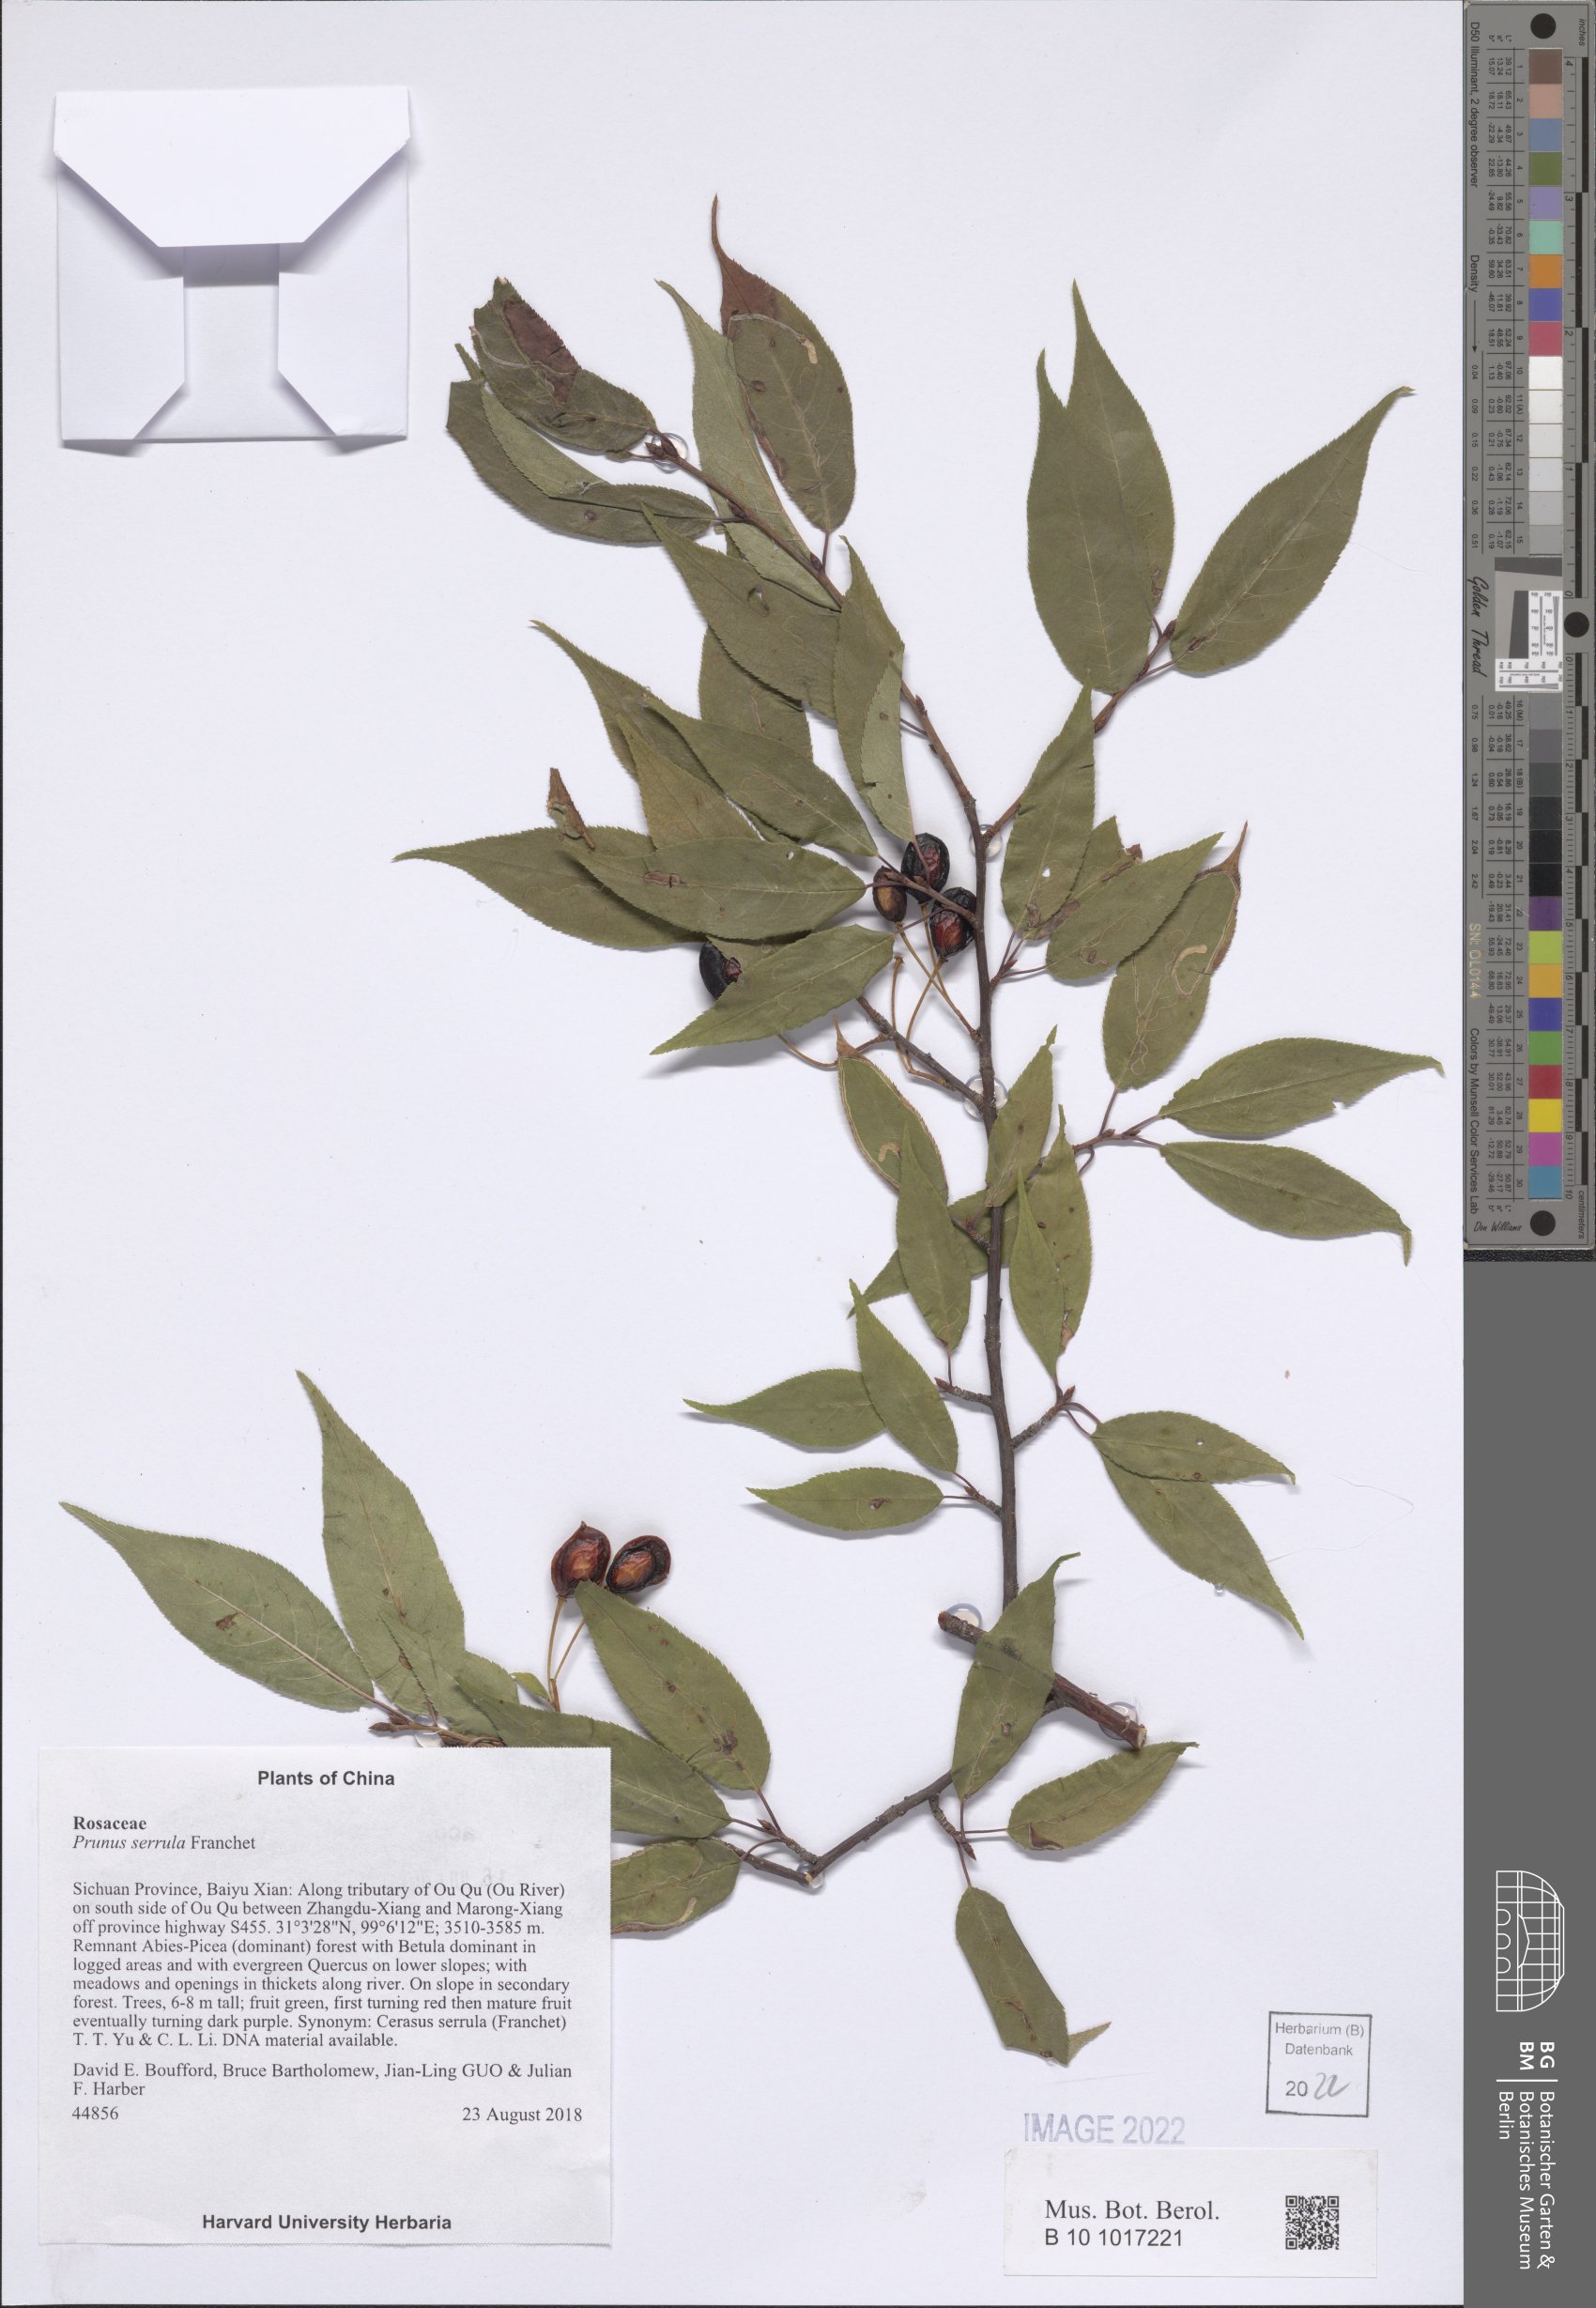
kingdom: Plantae
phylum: Tracheophyta
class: Magnoliopsida
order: Rosales
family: Rosaceae
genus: Prunus
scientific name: Prunus serrula
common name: Birchbark cherry
